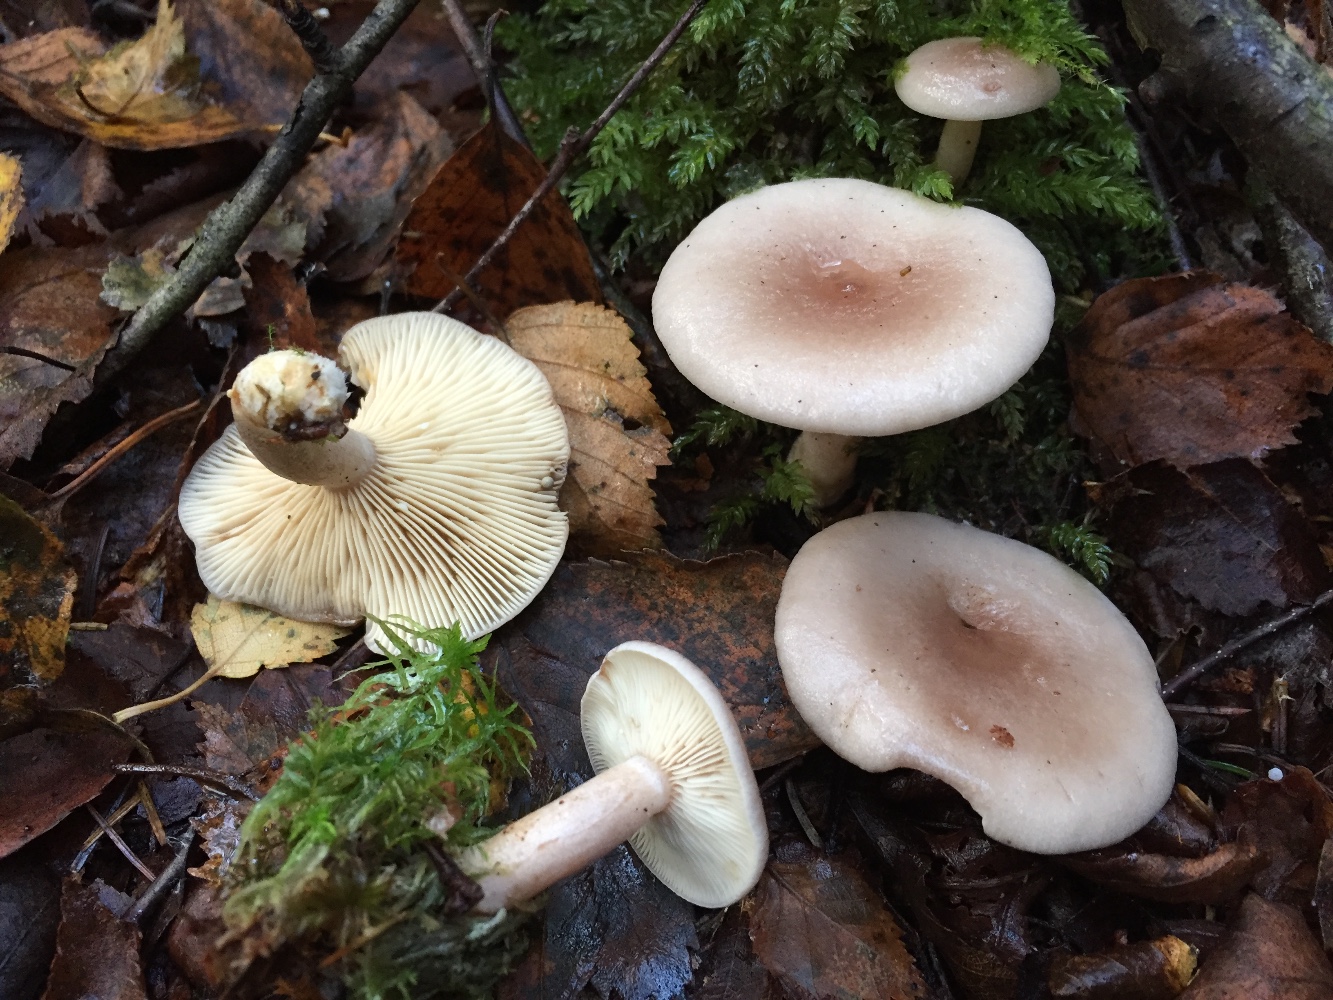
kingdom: Fungi
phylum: Basidiomycota
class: Agaricomycetes
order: Russulales
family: Russulaceae
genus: Lactarius
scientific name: Lactarius vietus
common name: violetgrå mælkehat
